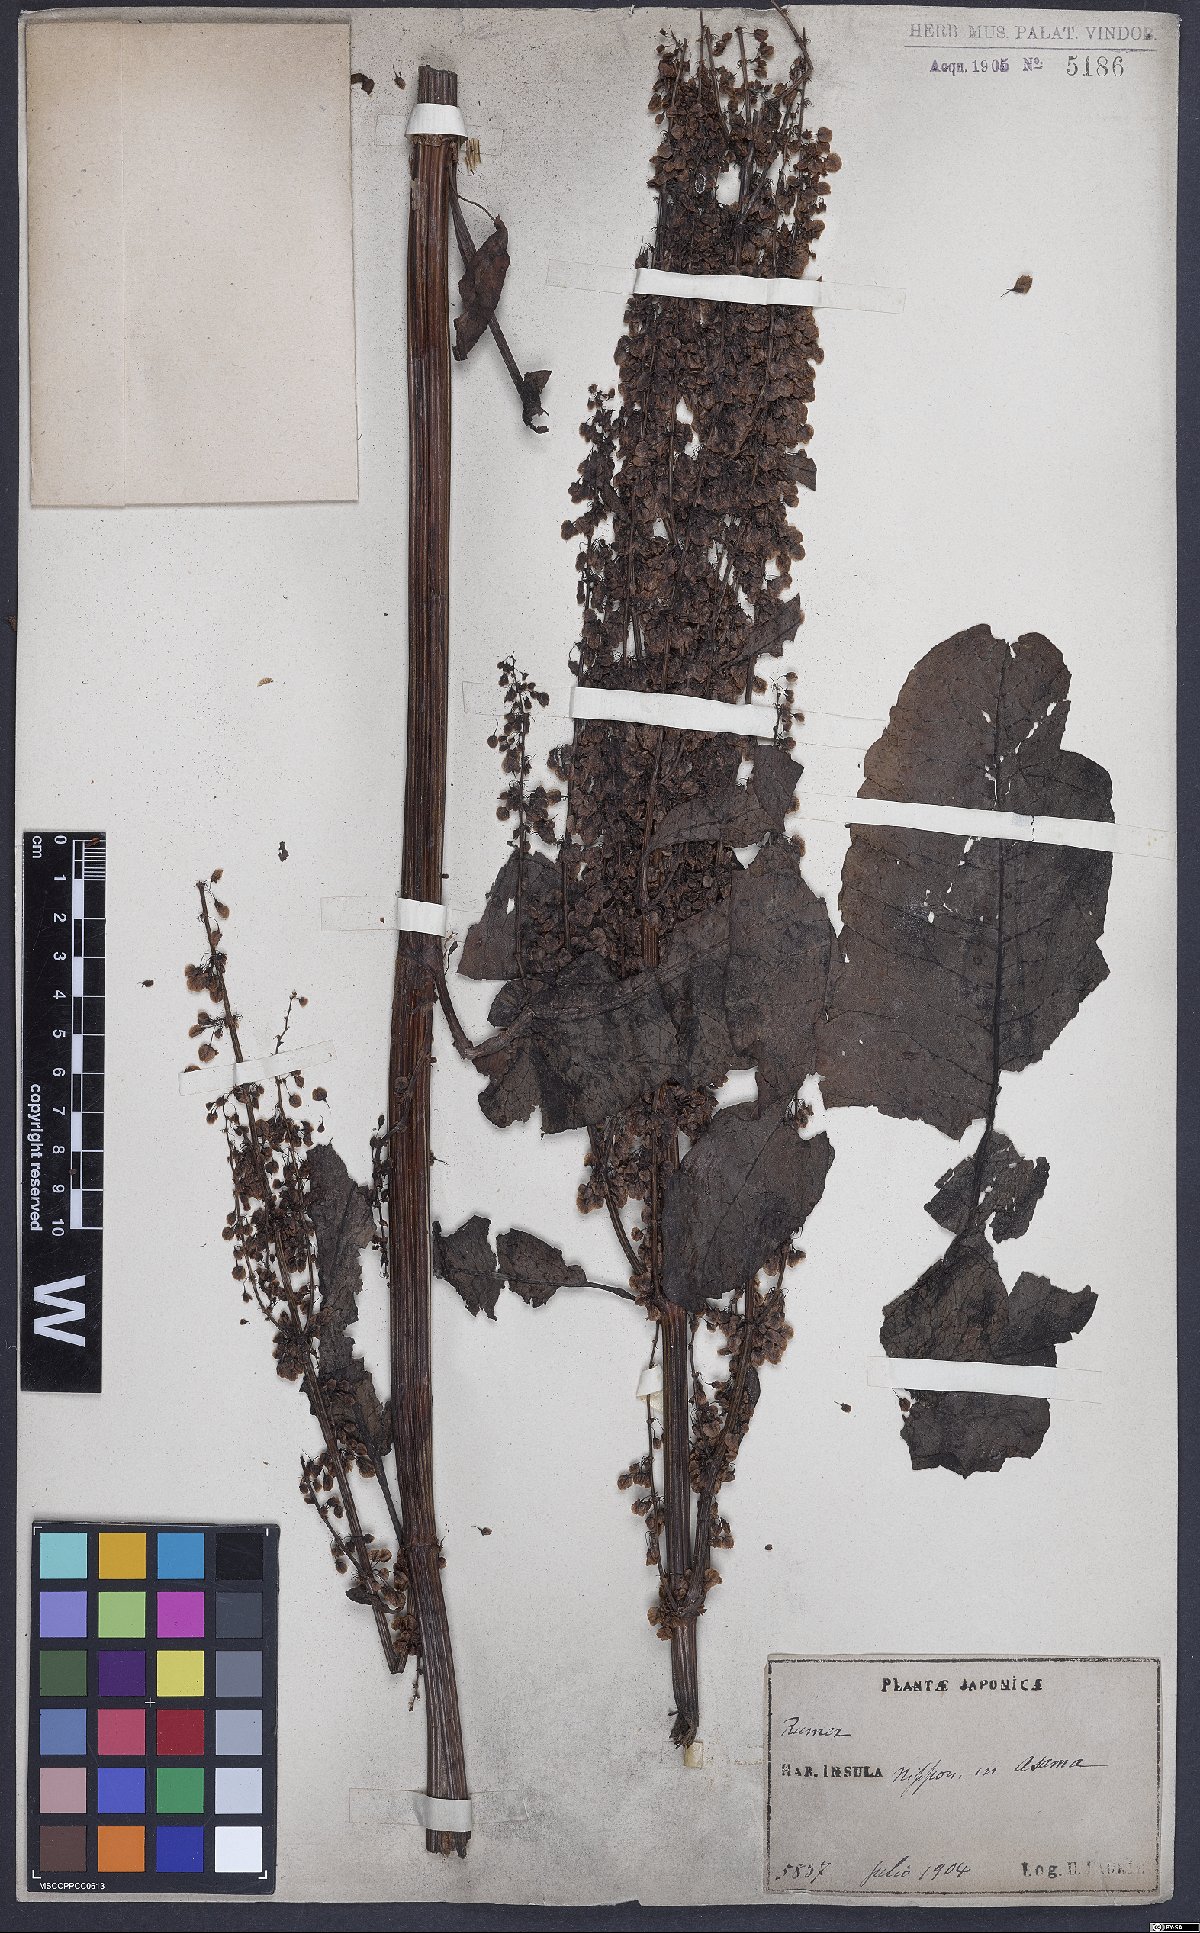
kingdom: Plantae
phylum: Tracheophyta
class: Magnoliopsida
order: Caryophyllales
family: Polygonaceae
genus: Rumex
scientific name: Rumex
